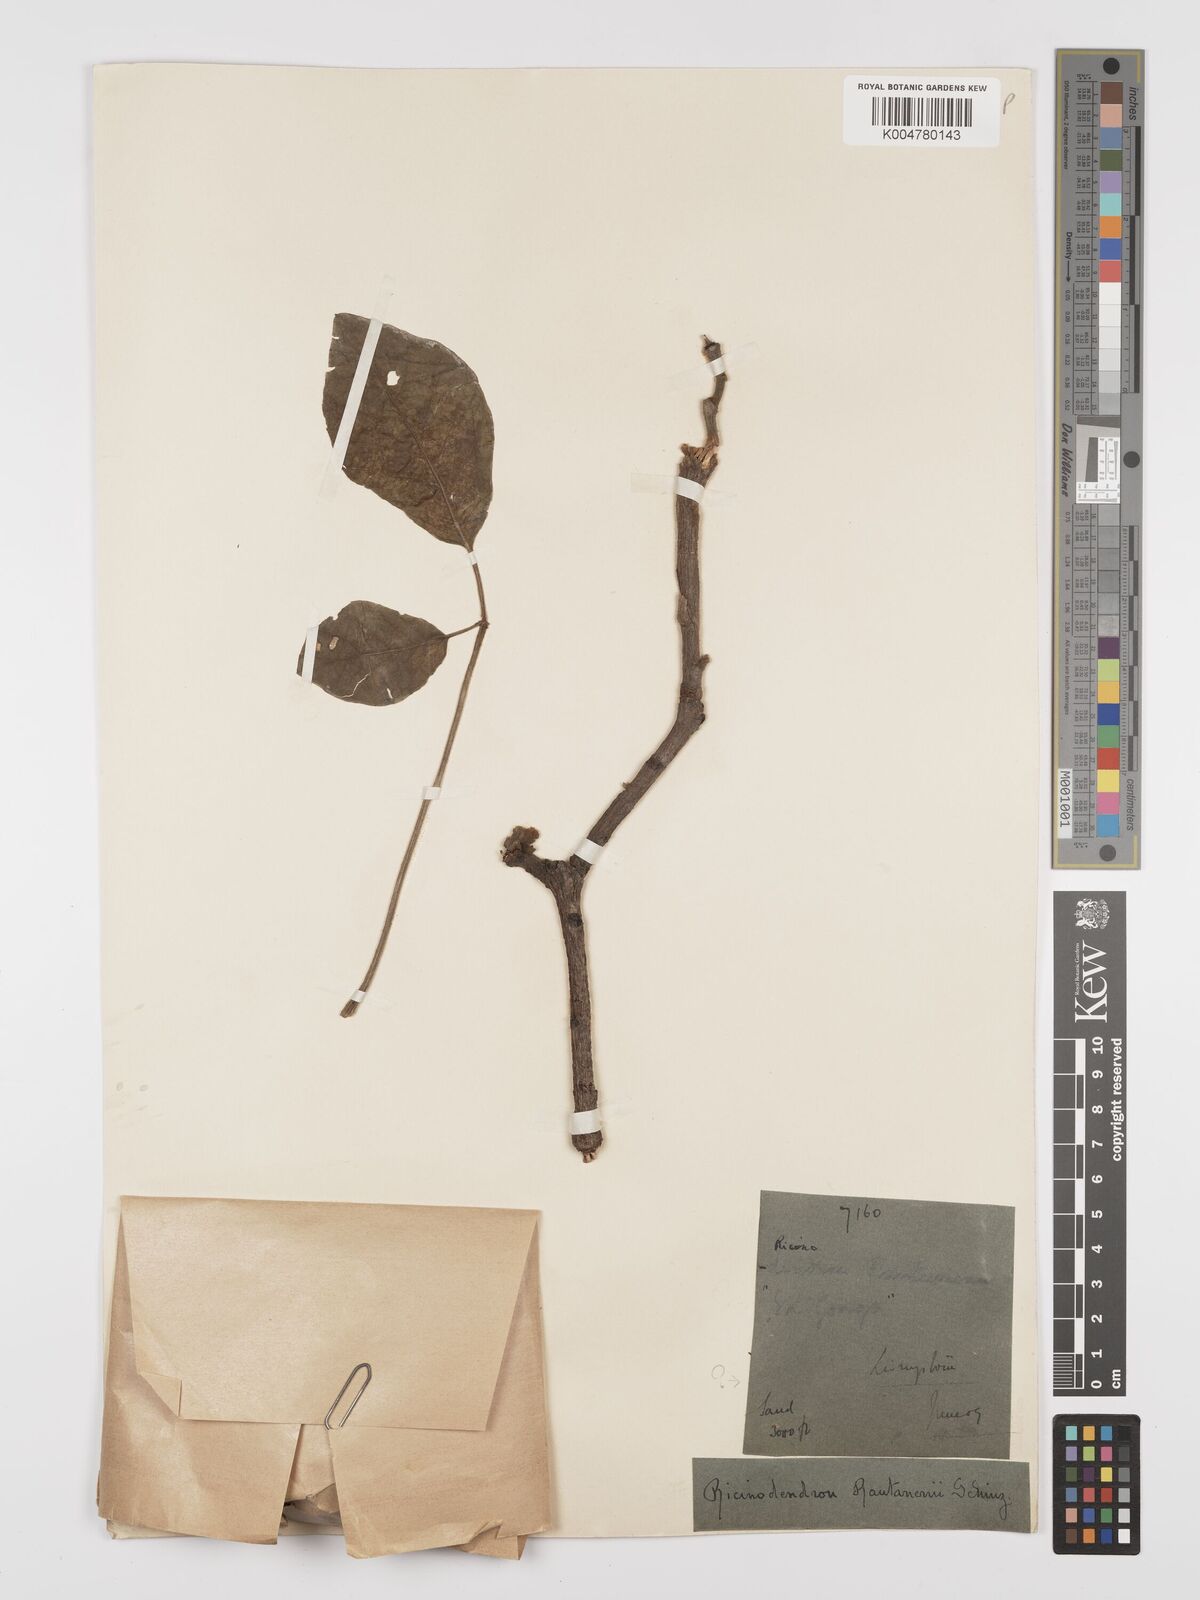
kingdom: Plantae
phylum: Tracheophyta
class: Magnoliopsida
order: Malpighiales
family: Euphorbiaceae
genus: Schinziophyton
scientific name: Schinziophyton rautanenii
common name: Manketti
